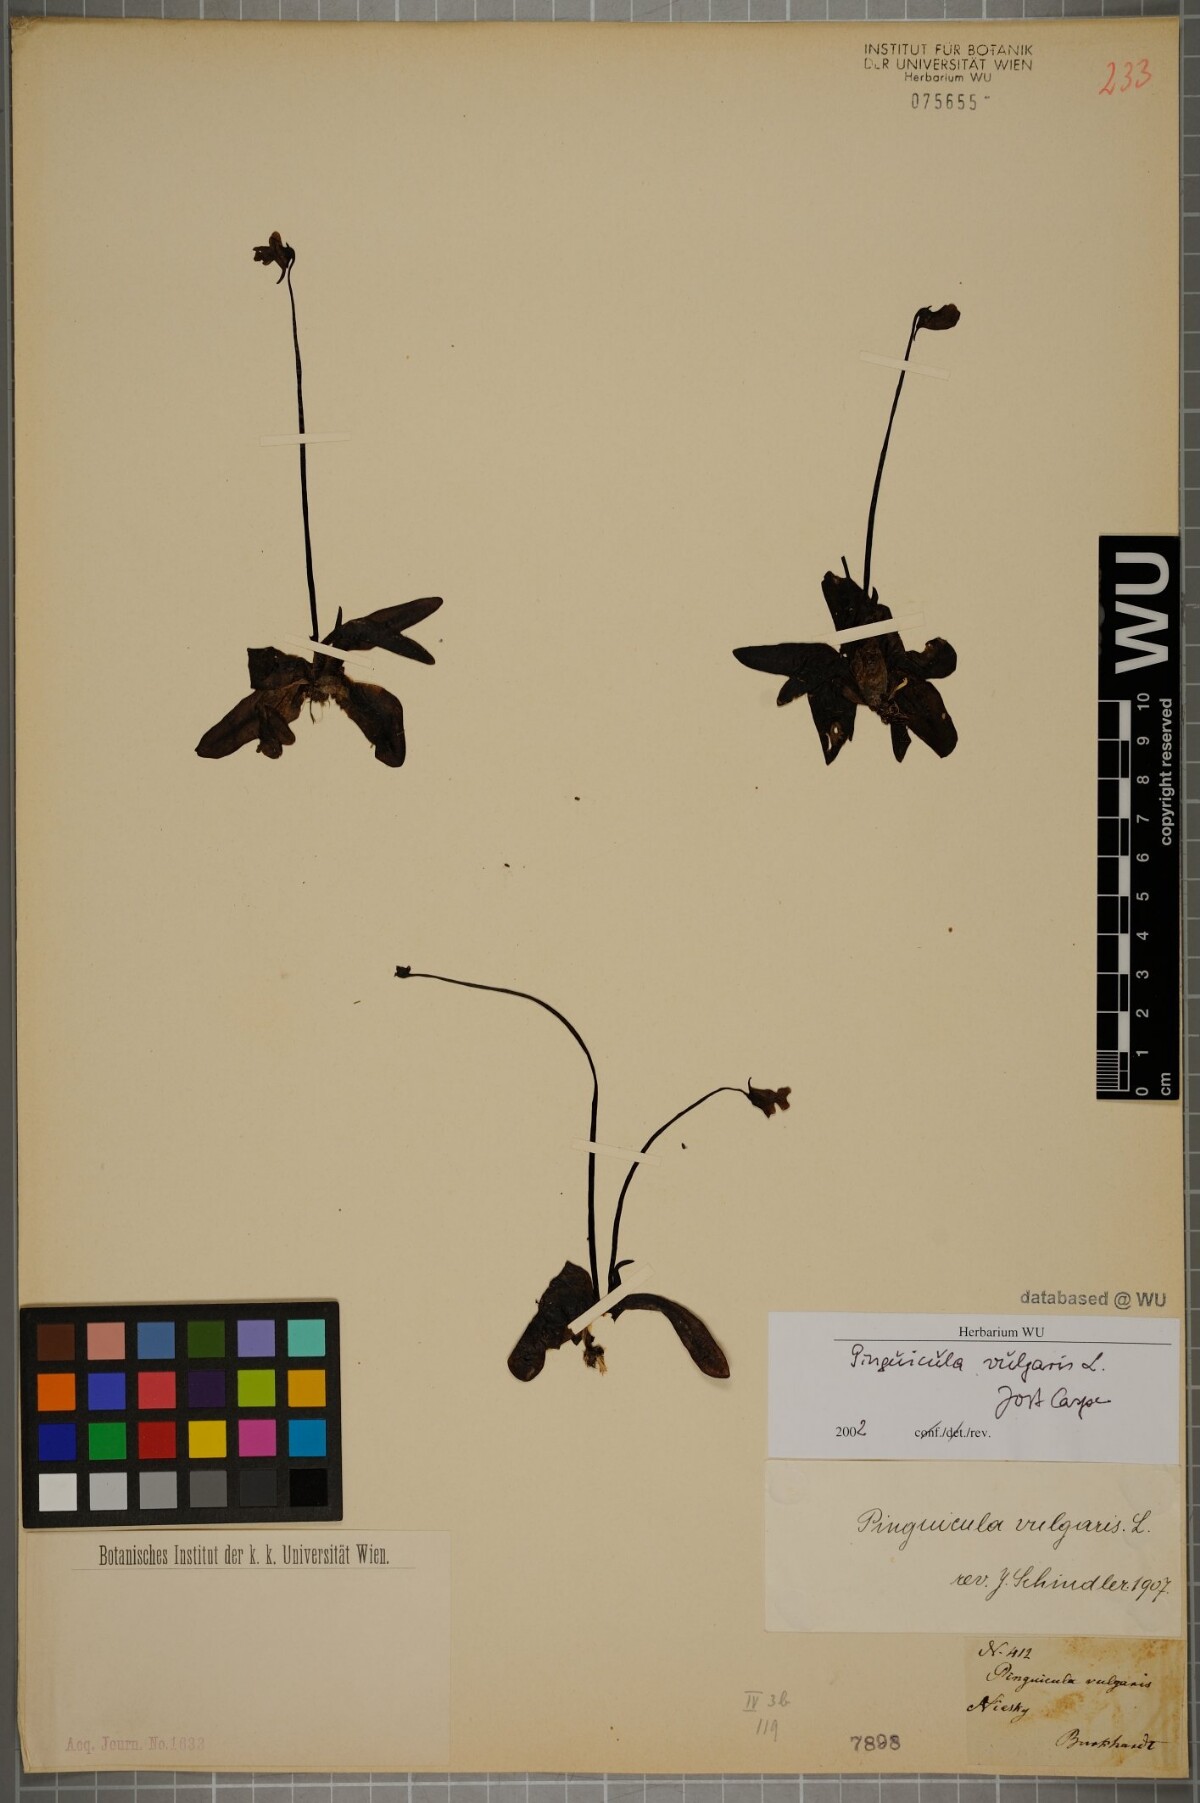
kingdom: Plantae
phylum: Tracheophyta
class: Magnoliopsida
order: Lamiales
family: Lentibulariaceae
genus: Pinguicula
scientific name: Pinguicula vulgaris
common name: Common butterwort
